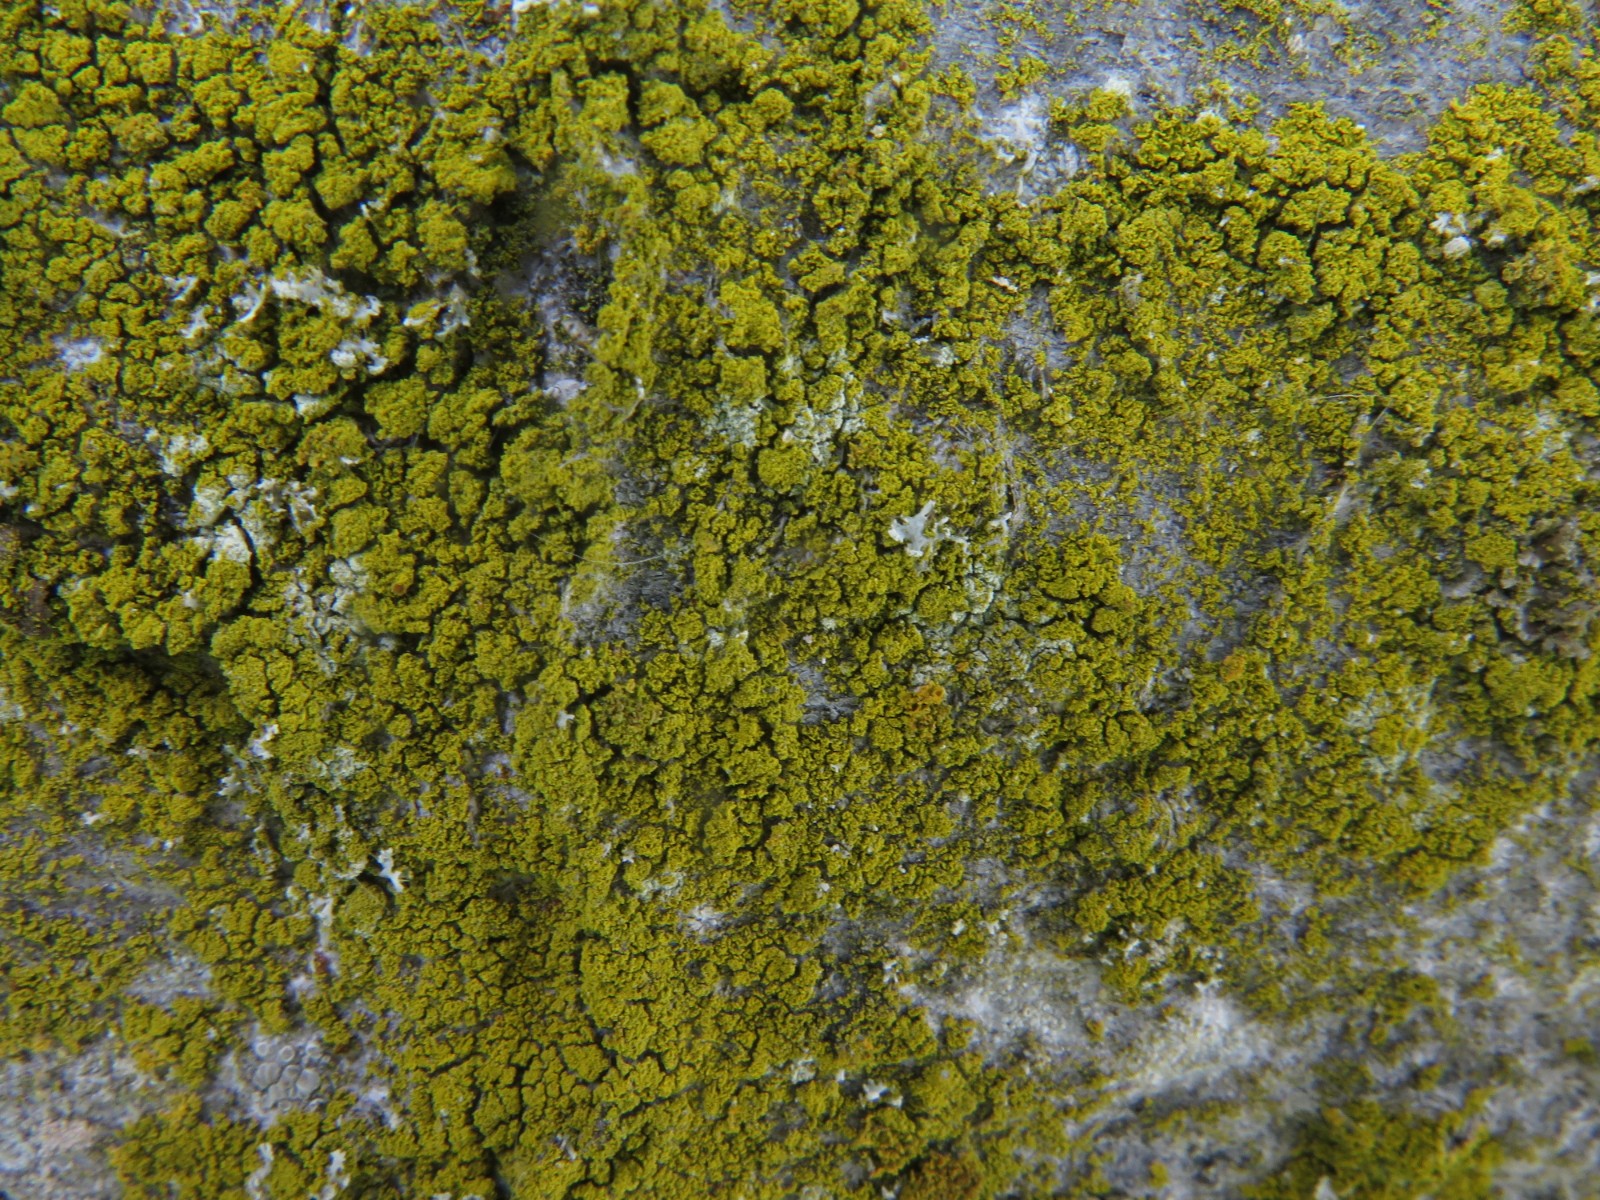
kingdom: Fungi
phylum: Ascomycota
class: Candelariomycetes
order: Candelariales
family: Candelariaceae
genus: Candelariella
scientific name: Candelariella vitellina
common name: almindelig æggeblommelav
